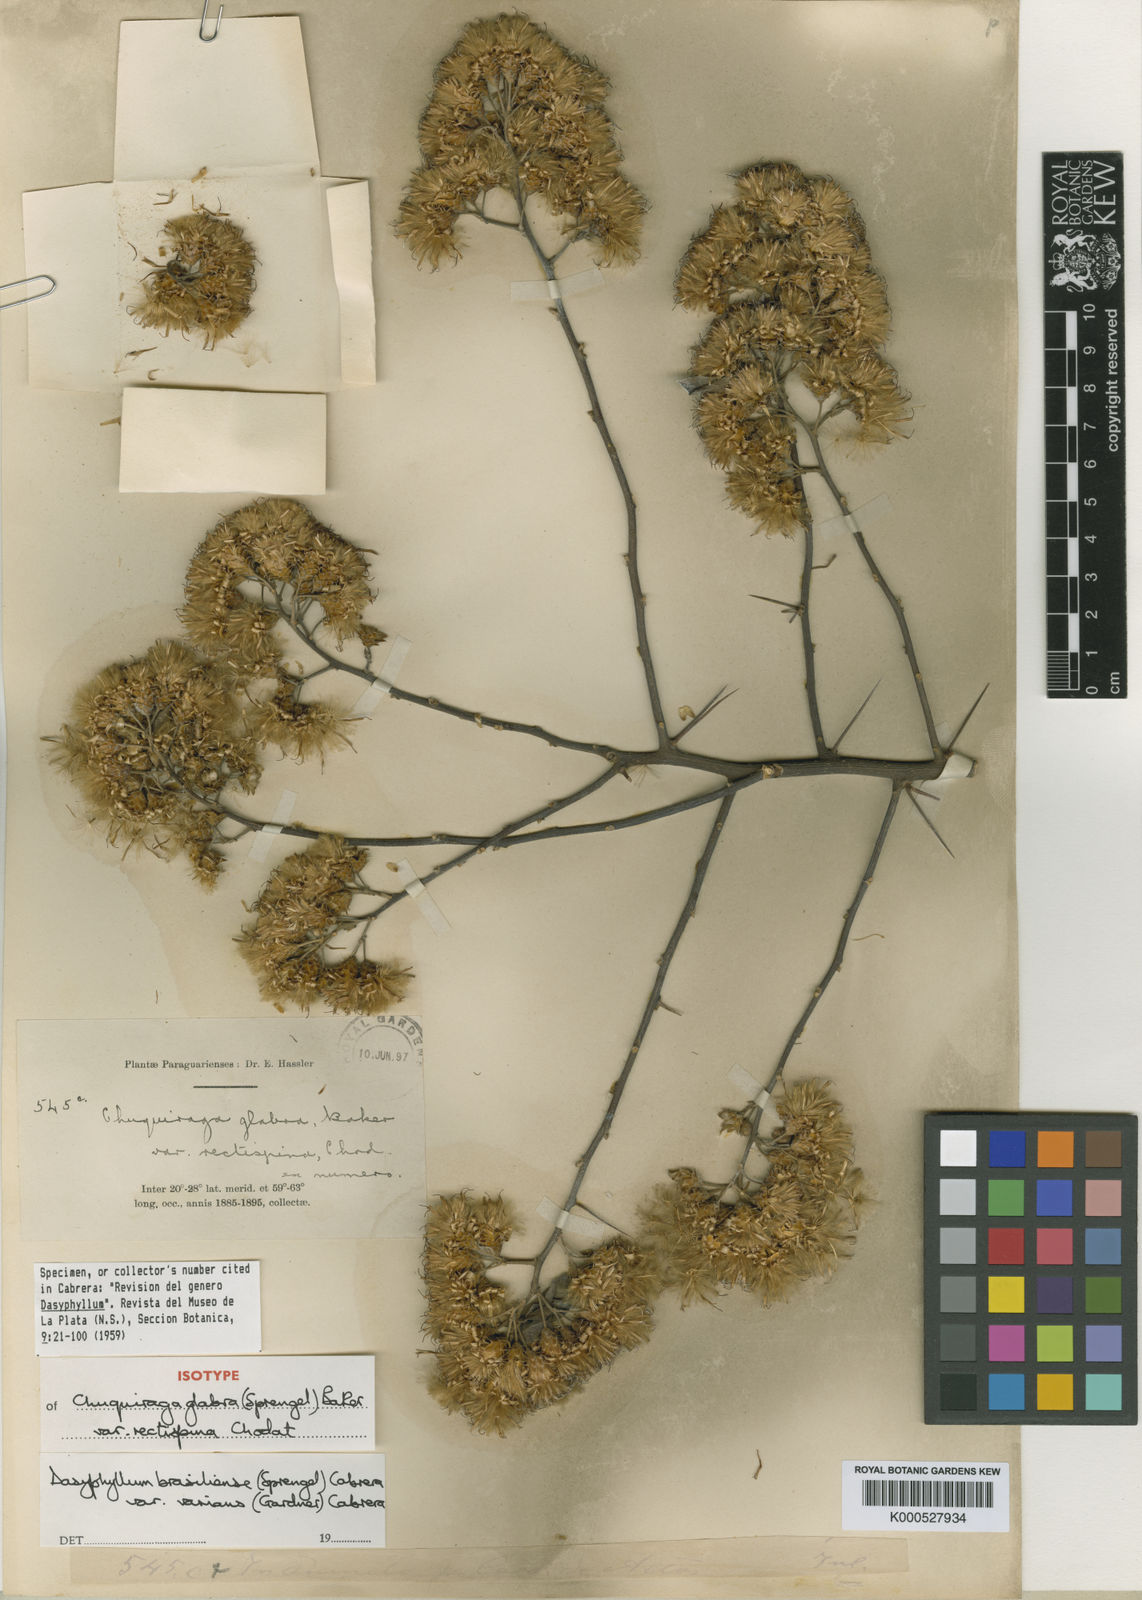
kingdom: Plantae
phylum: Tracheophyta
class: Magnoliopsida
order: Asterales
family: Asteraceae
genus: Dasyphyllum
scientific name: Dasyphyllum varians
